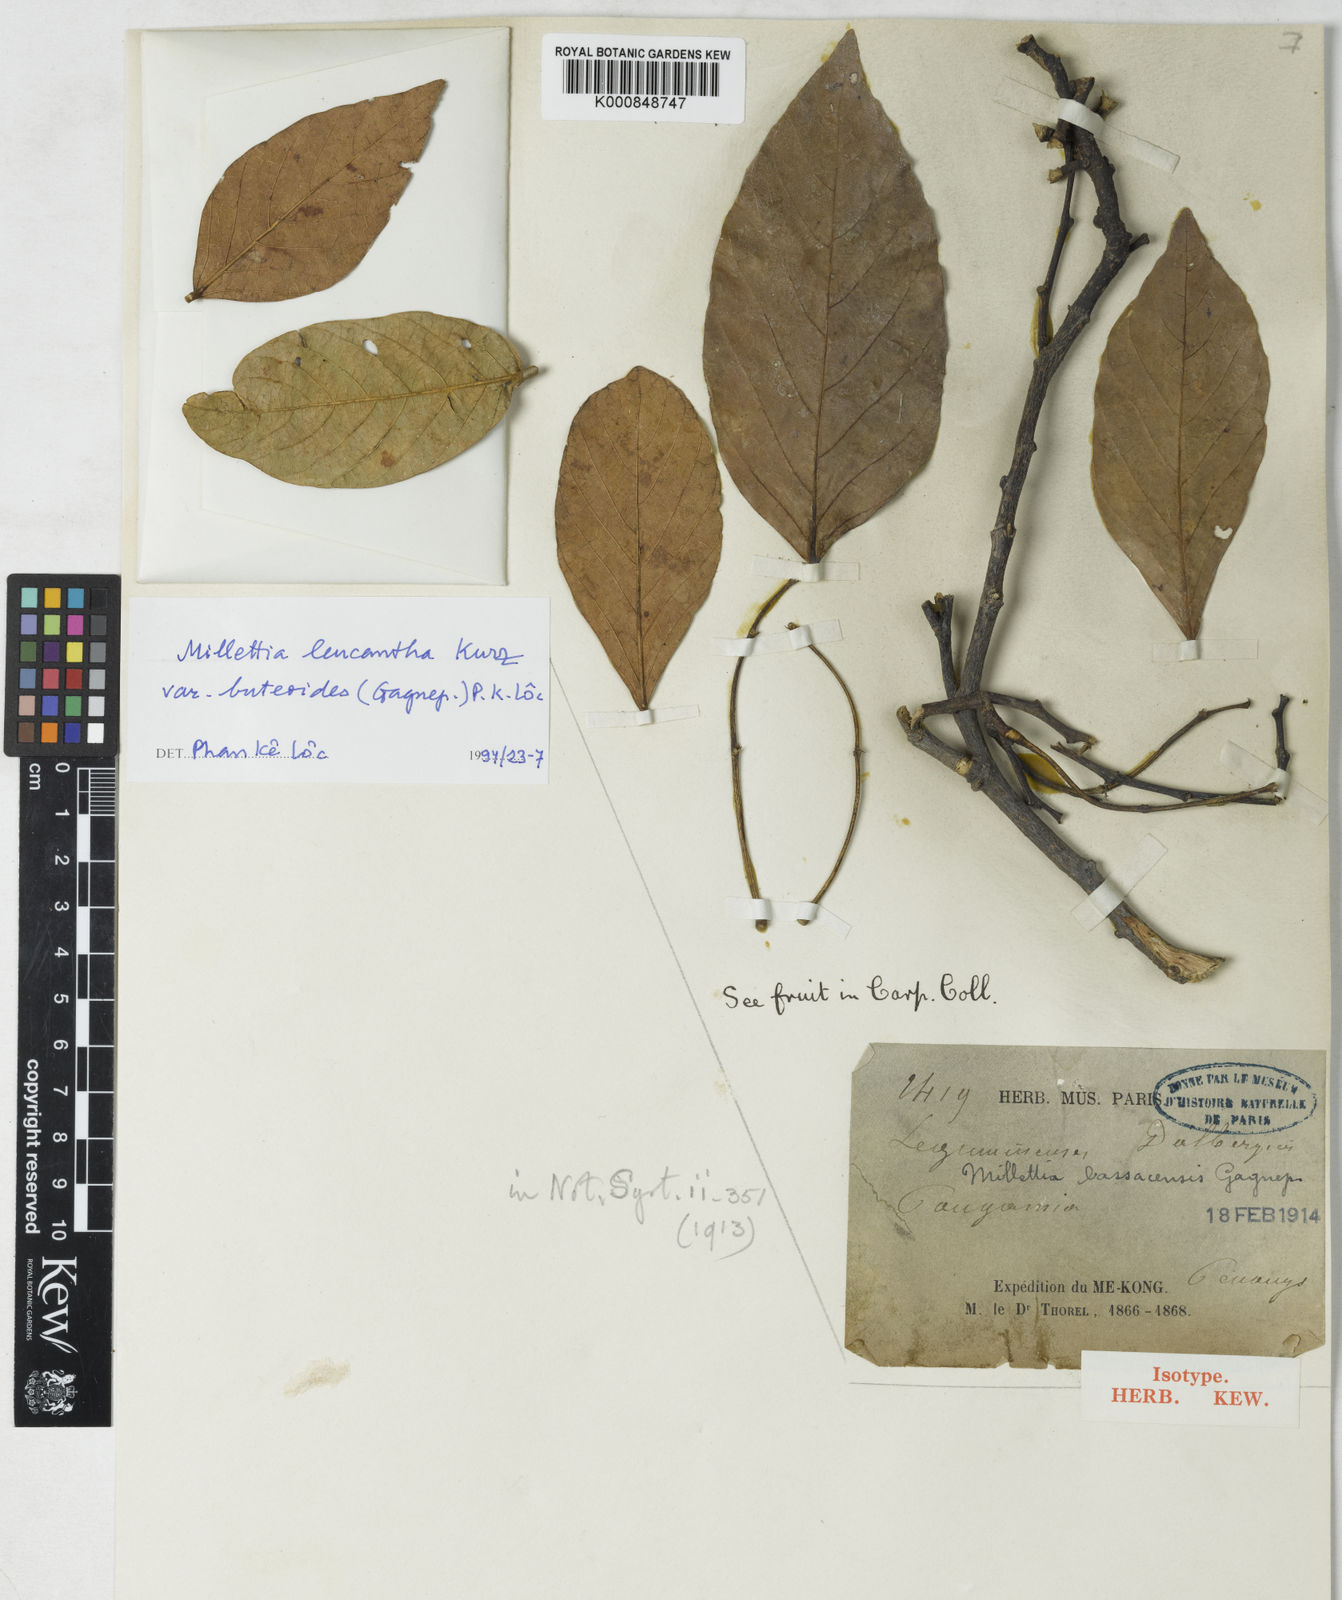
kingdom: Plantae
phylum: Tracheophyta
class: Magnoliopsida
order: Fabales
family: Fabaceae
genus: Imbralyx
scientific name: Imbralyx leucanthus
